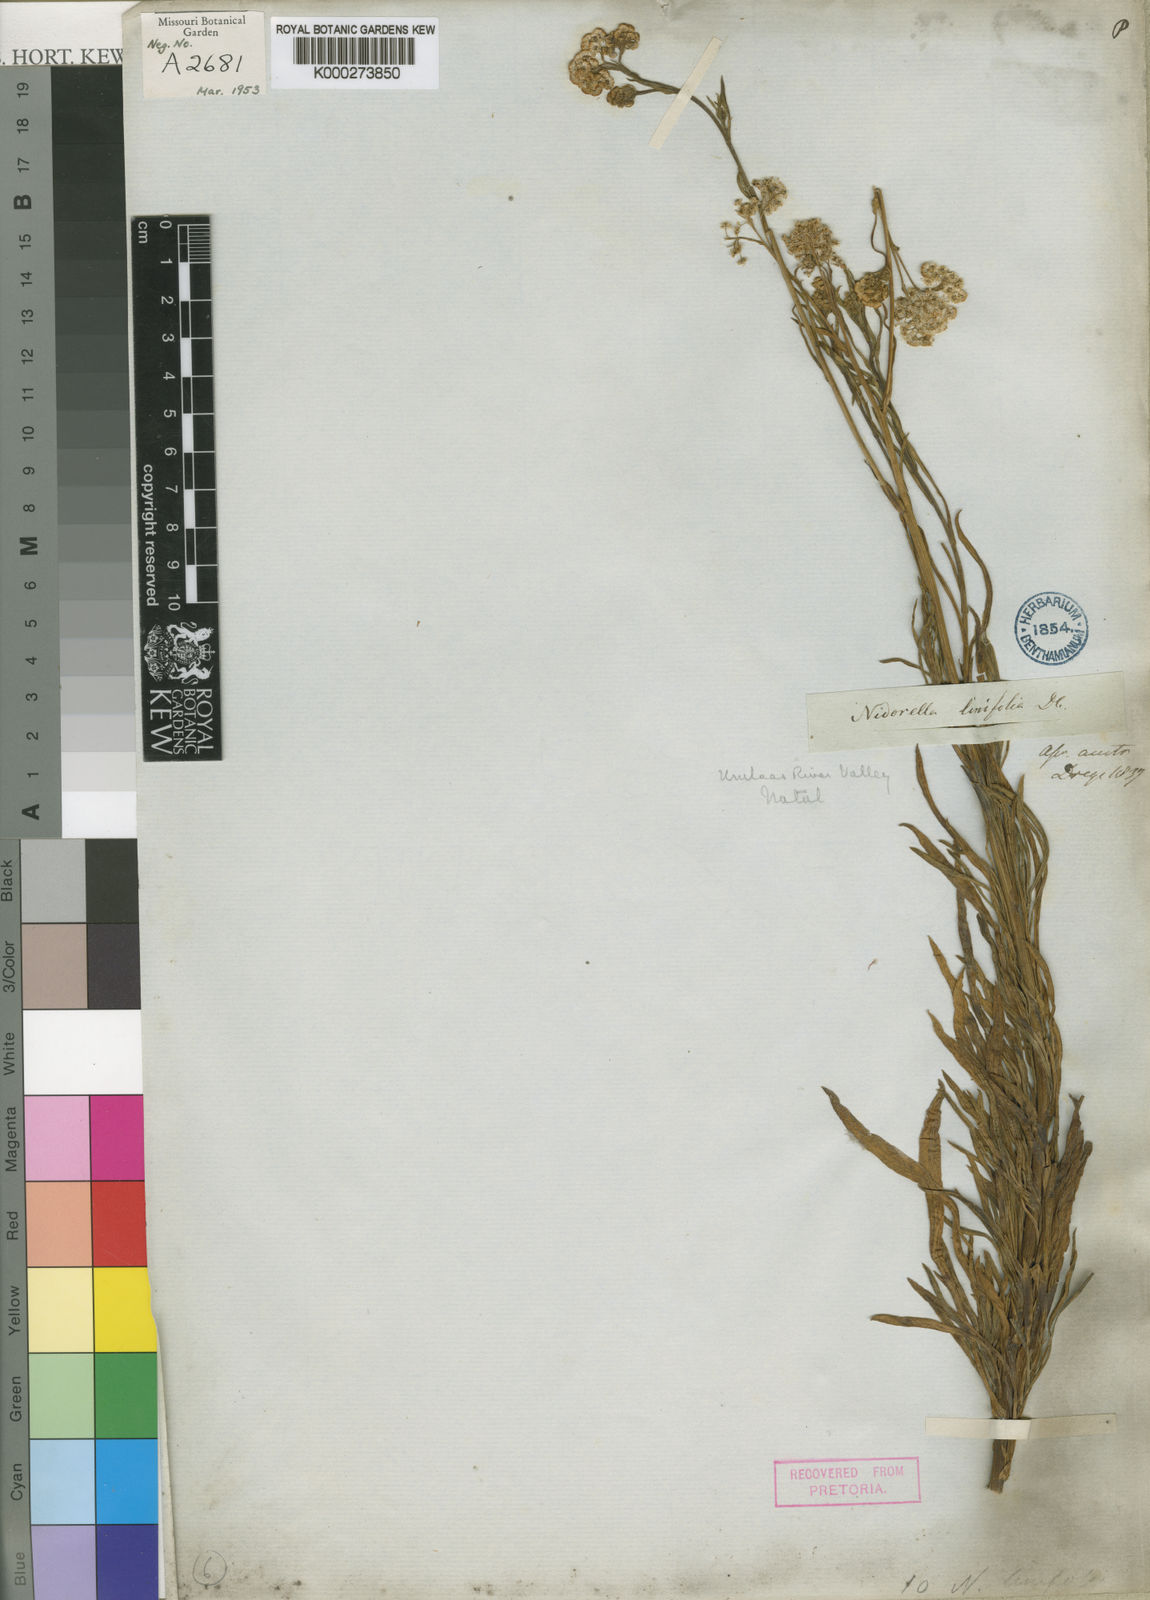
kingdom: Plantae
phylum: Tracheophyta
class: Magnoliopsida
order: Asterales
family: Asteraceae
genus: Nidorella
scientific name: Nidorella linifolia
